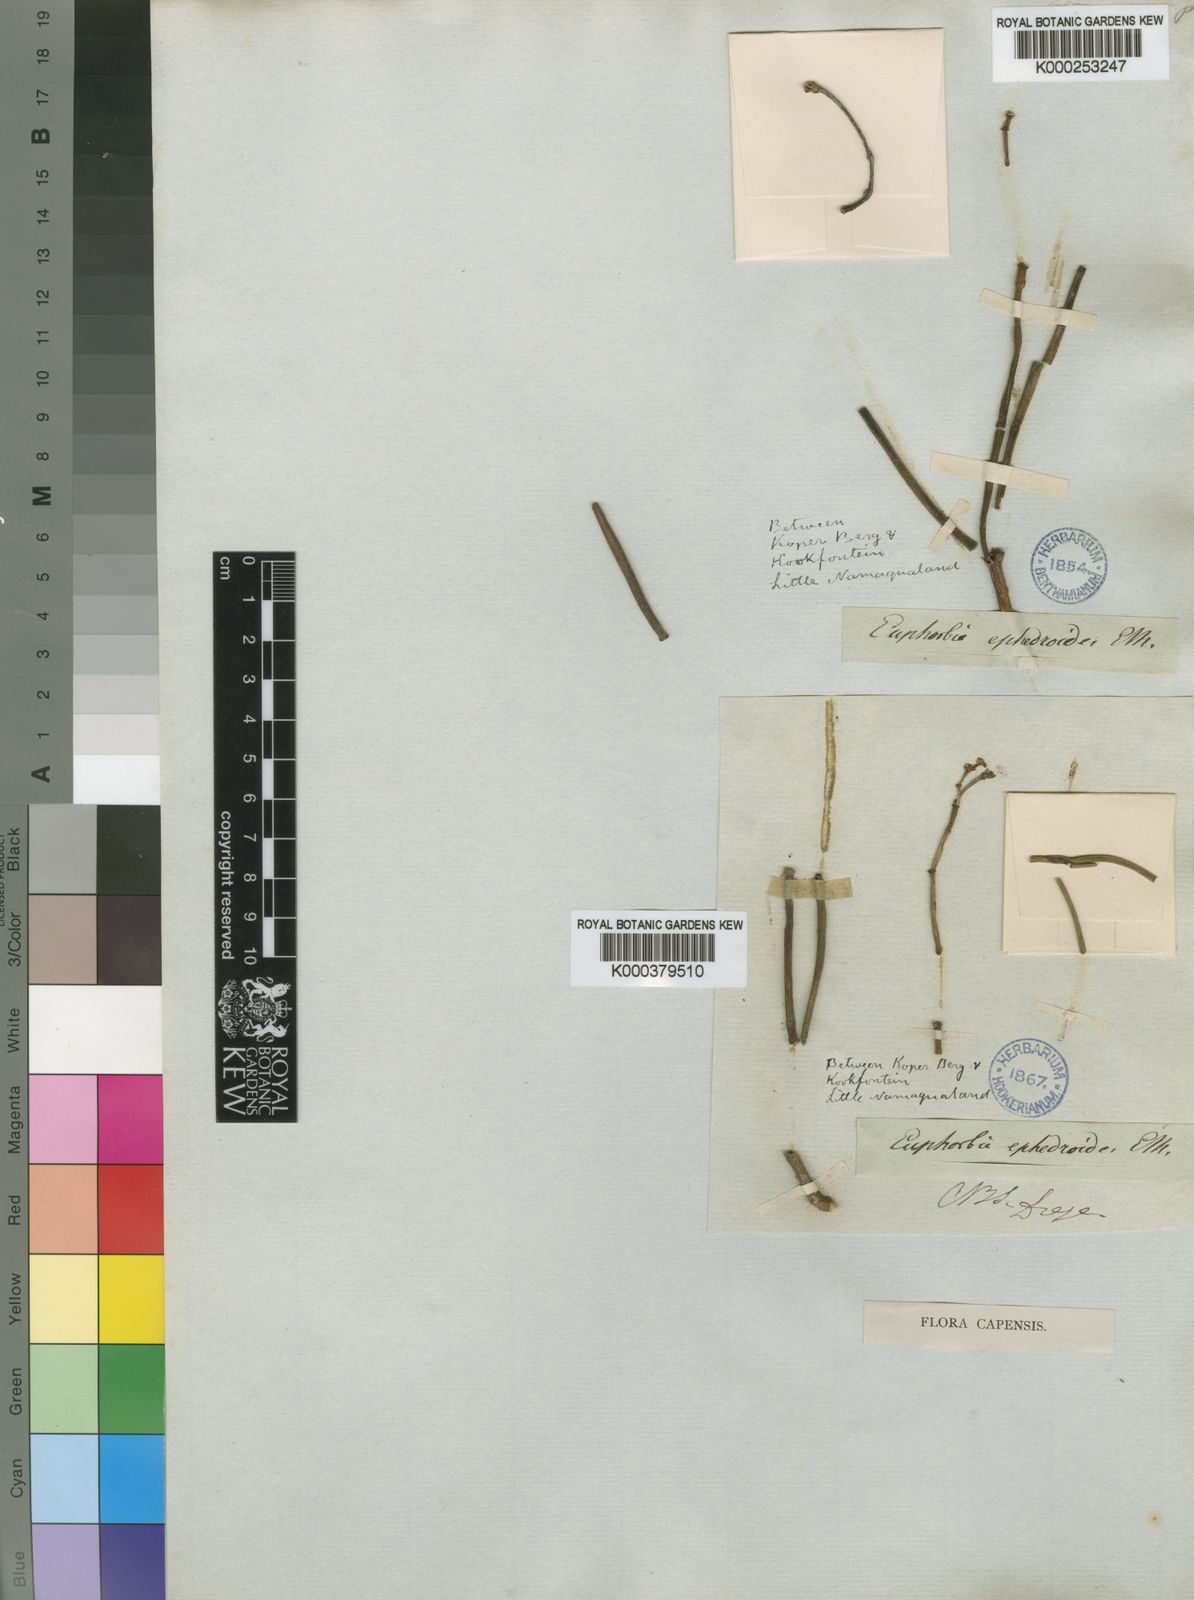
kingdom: Plantae
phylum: Tracheophyta
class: Magnoliopsida
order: Malpighiales
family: Euphorbiaceae
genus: Euphorbia
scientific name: Euphorbia
